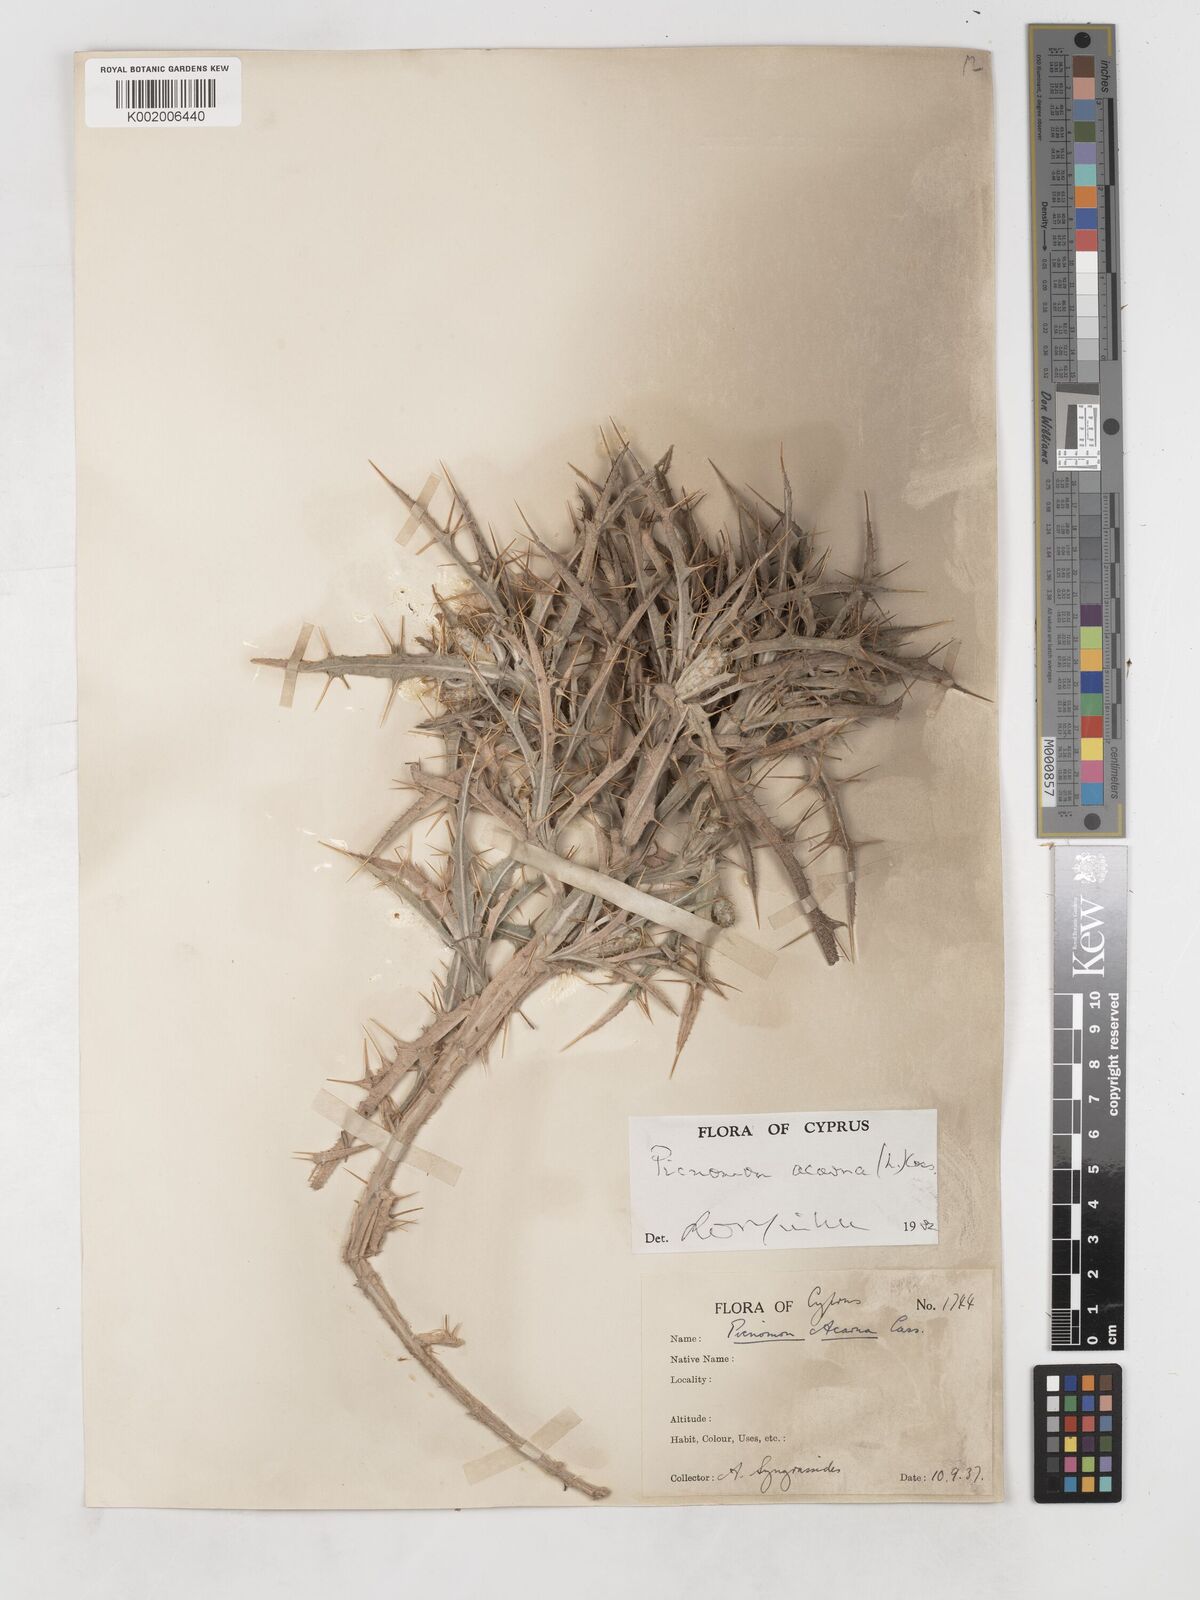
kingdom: Plantae
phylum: Tracheophyta
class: Magnoliopsida
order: Asterales
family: Asteraceae
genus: Picnomon
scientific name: Picnomon acarna
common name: Soldier thistle
